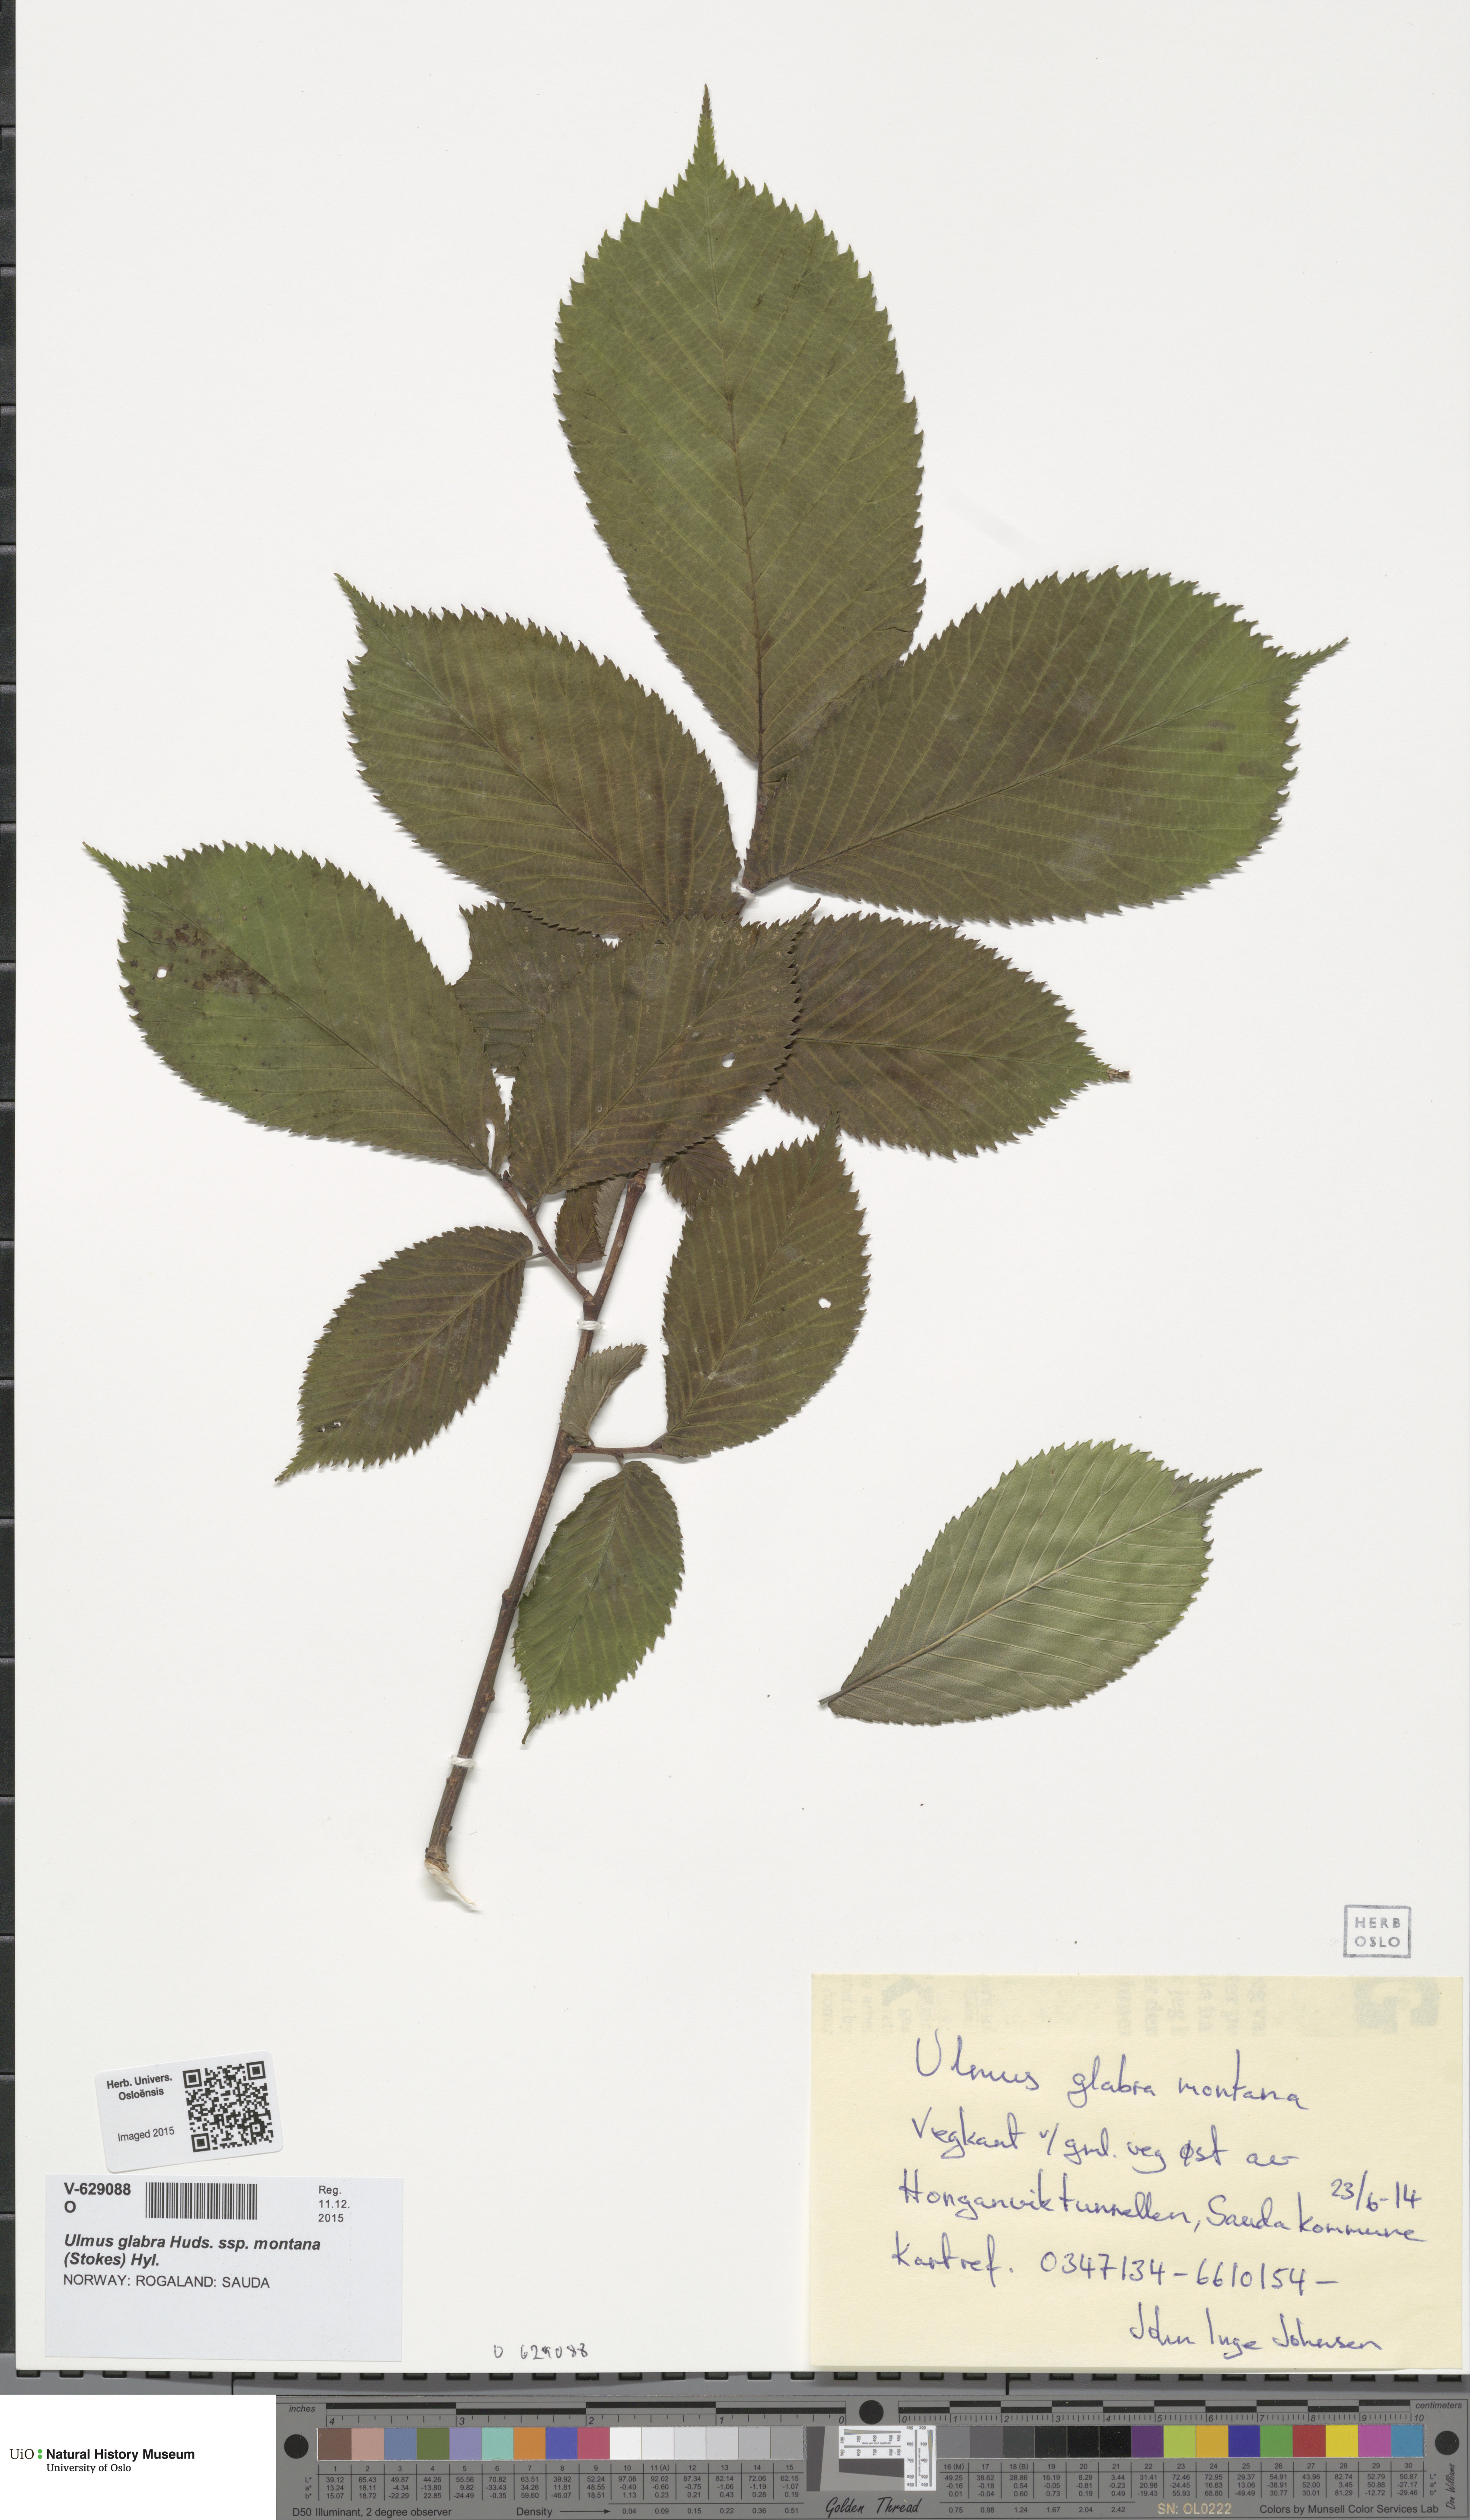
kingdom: Plantae
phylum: Tracheophyta
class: Magnoliopsida
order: Rosales
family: Ulmaceae
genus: Ulmus
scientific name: Ulmus glabra
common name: Wych elm
